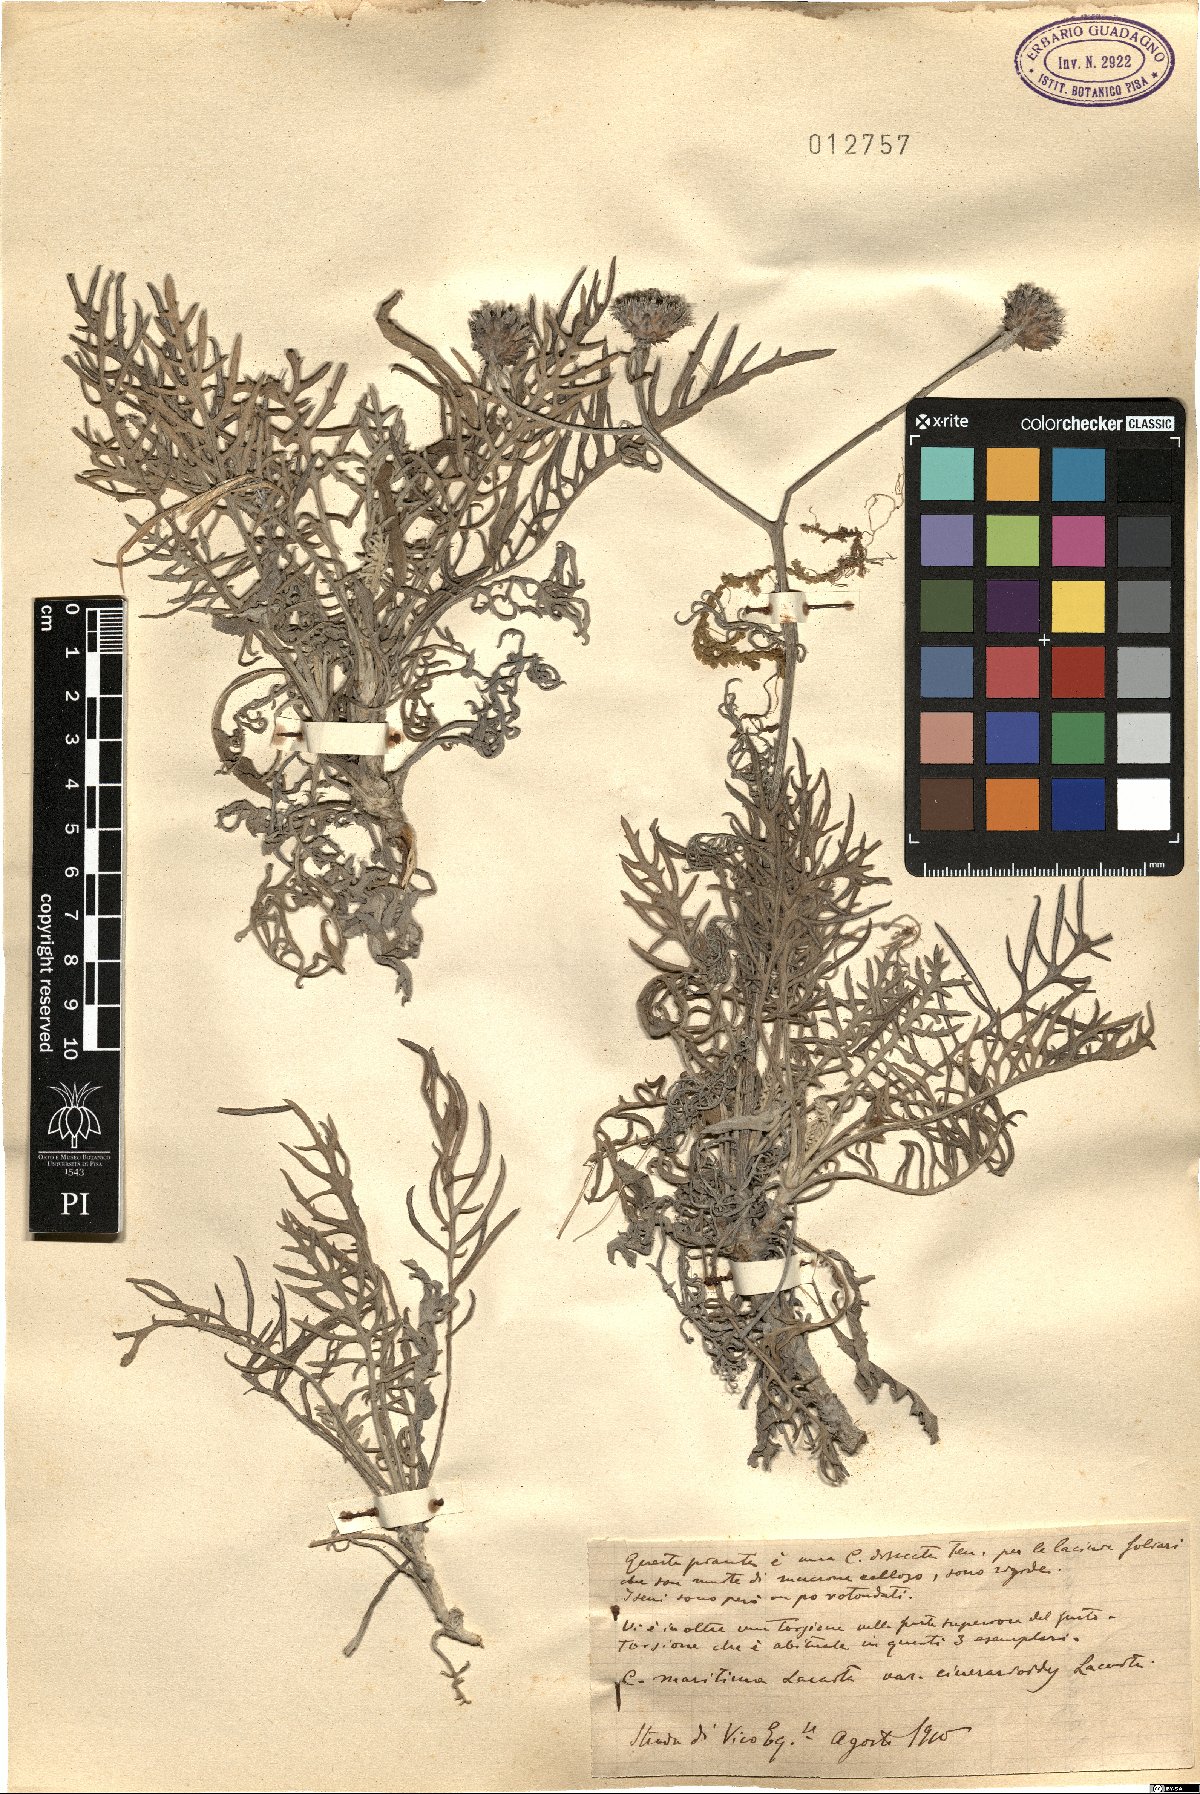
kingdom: Plantae
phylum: Tracheophyta
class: Magnoliopsida
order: Asterales
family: Asteraceae
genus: Centaurea
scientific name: Centaurea tenorei
